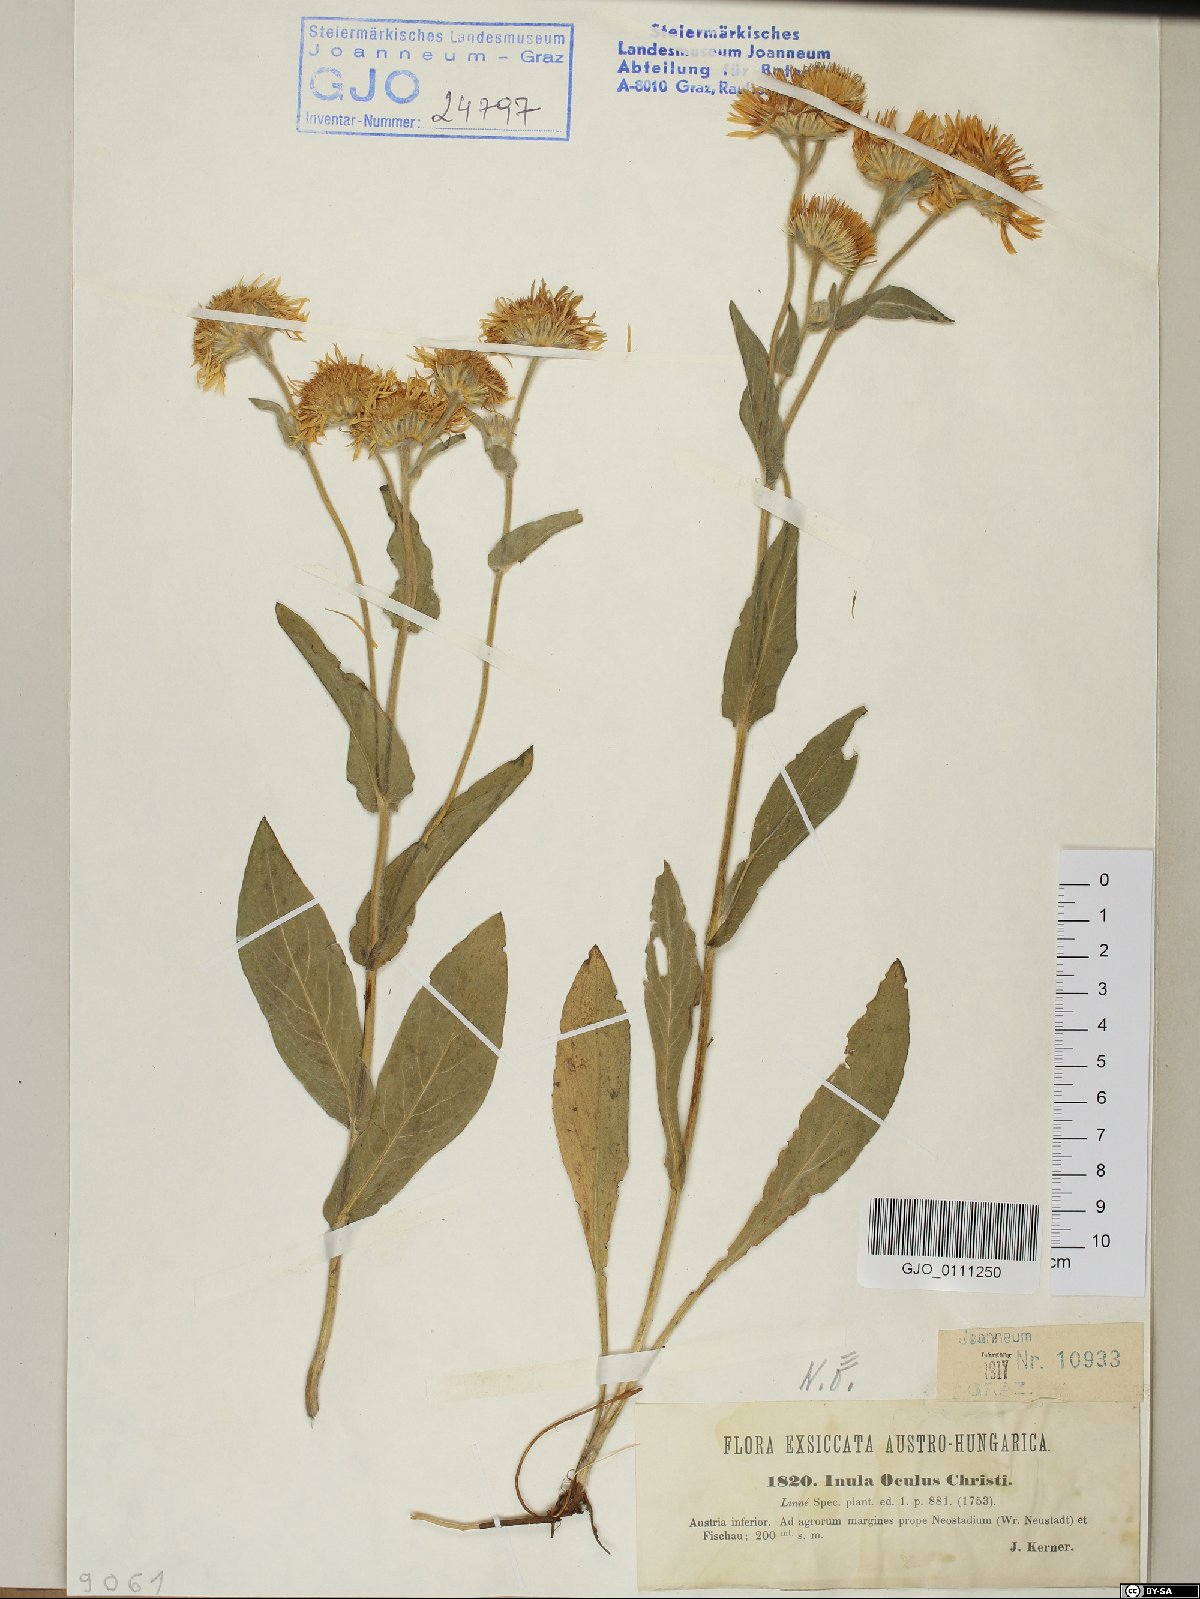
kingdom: Plantae
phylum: Tracheophyta
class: Magnoliopsida
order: Asterales
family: Asteraceae
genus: Pentanema
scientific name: Pentanema oculus-christi
